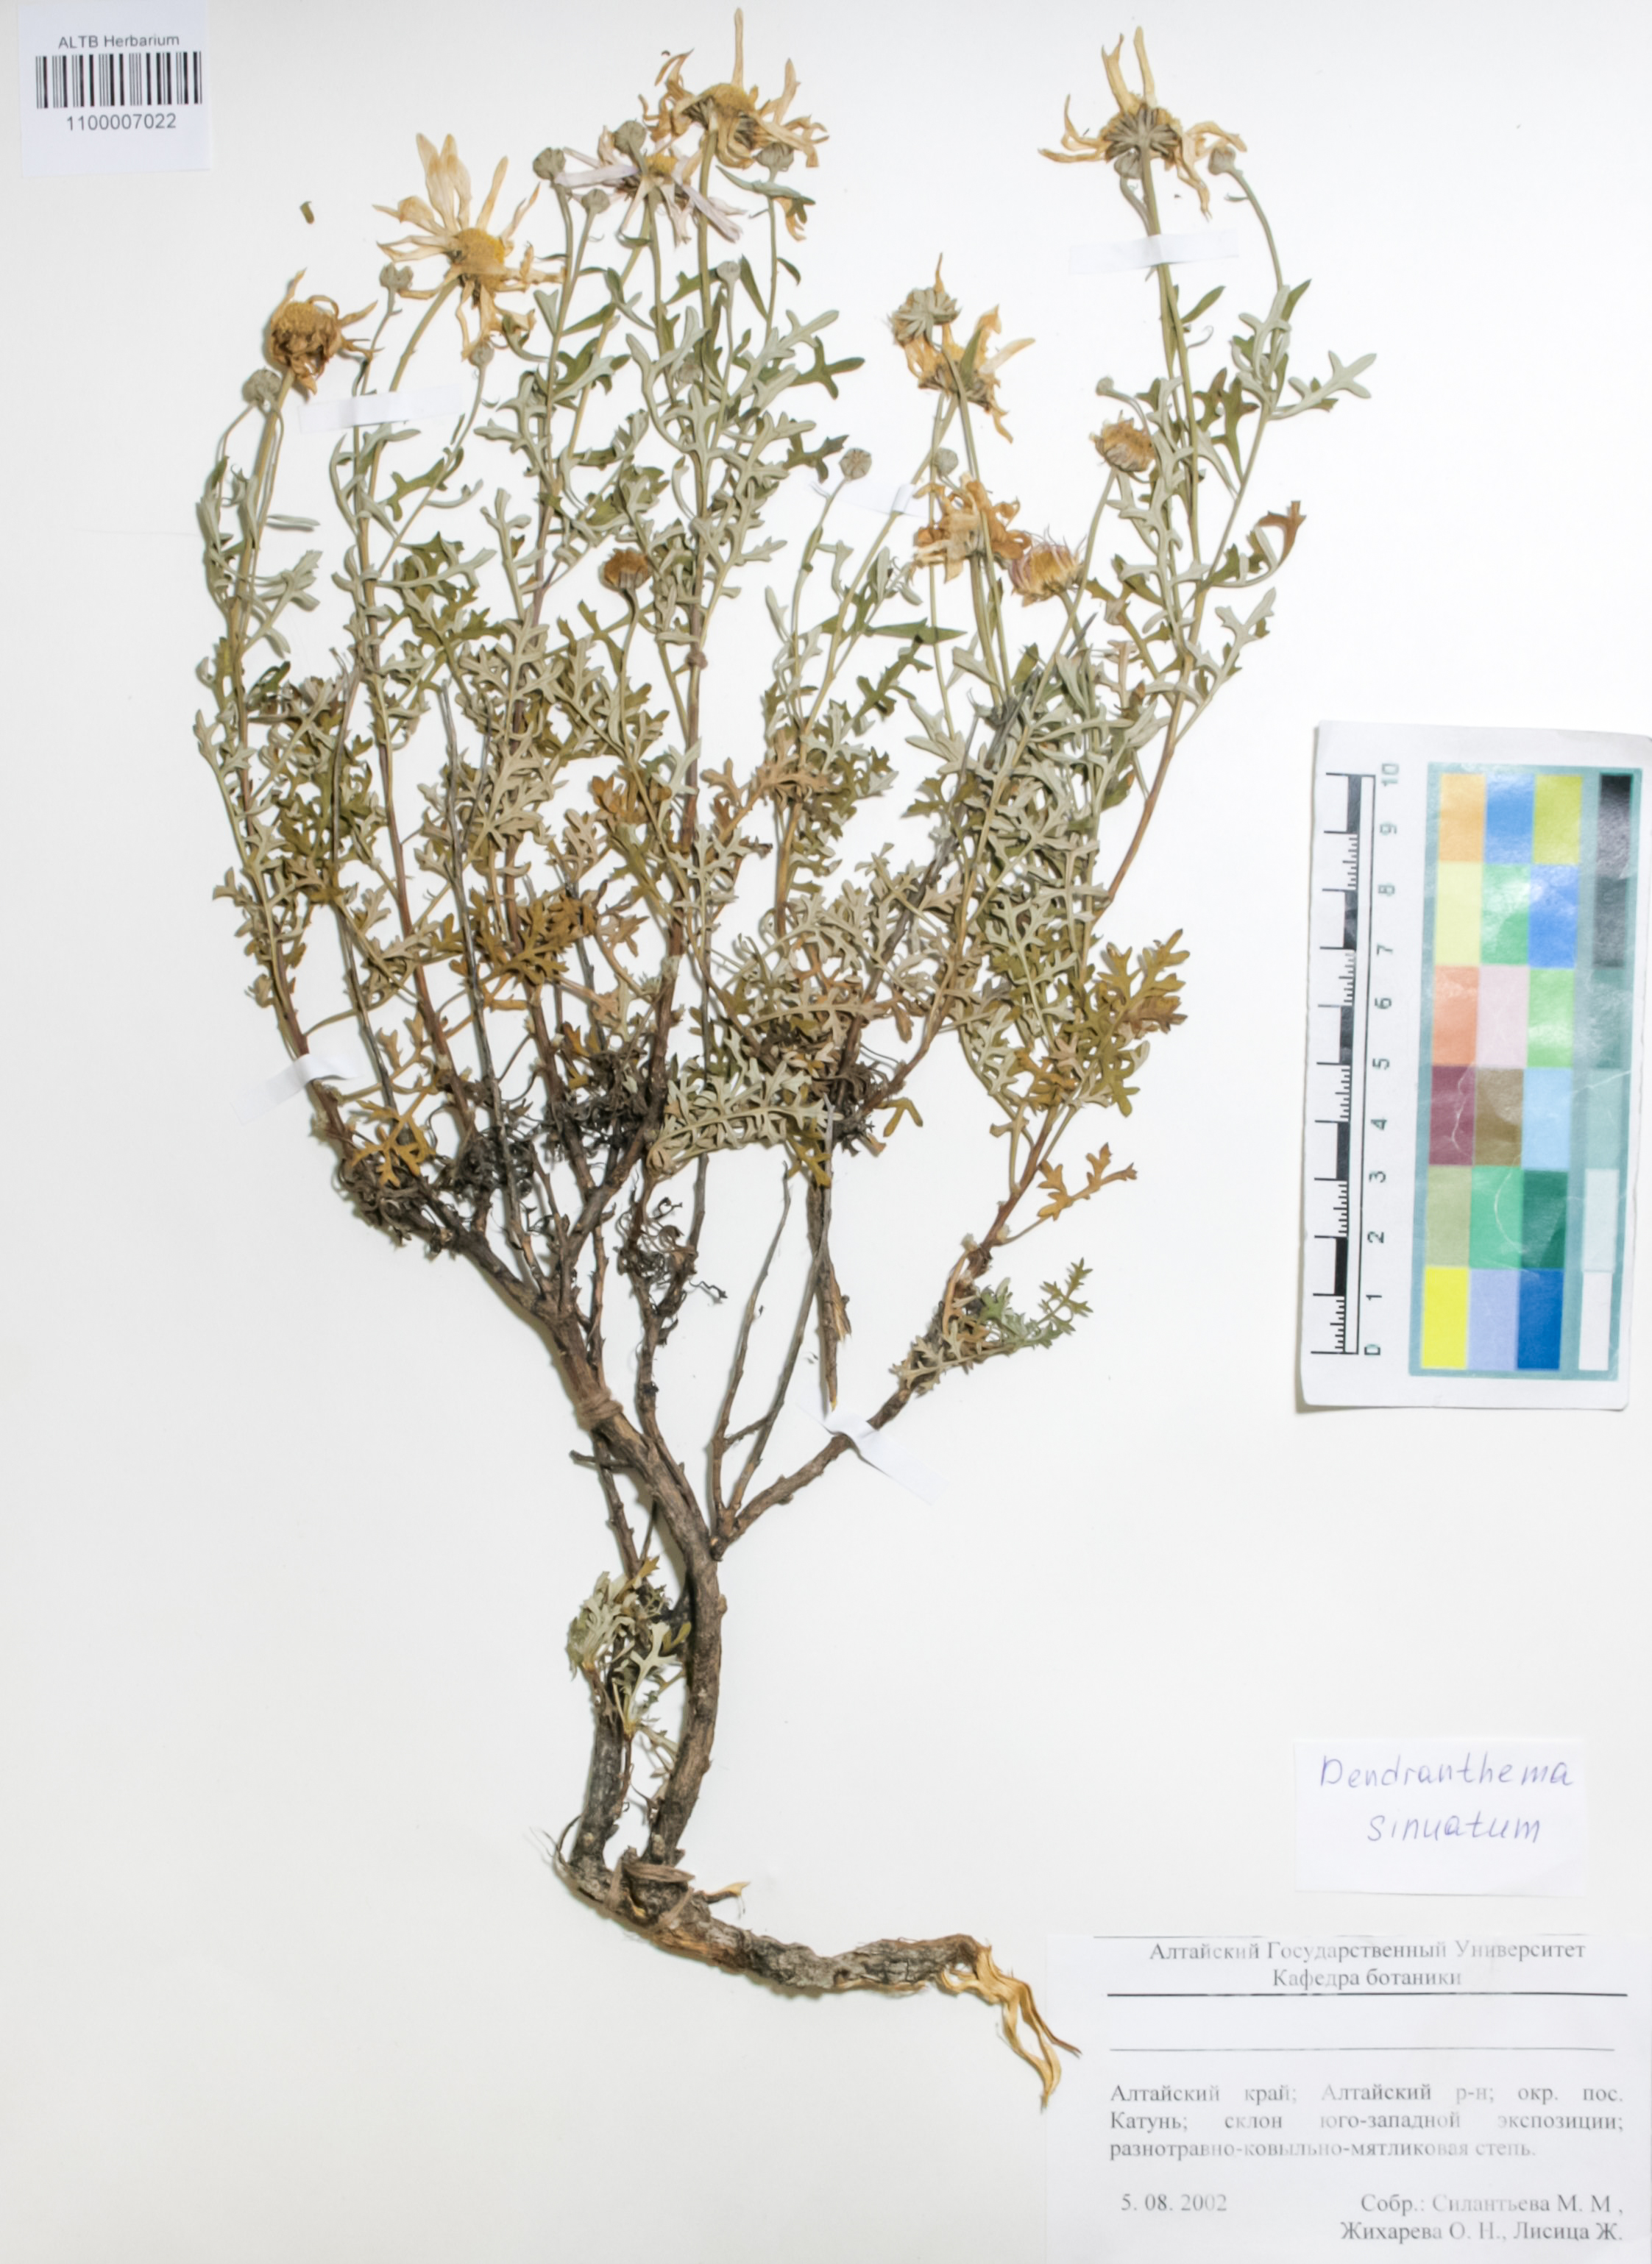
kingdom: Plantae
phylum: Tracheophyta
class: Magnoliopsida
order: Asterales
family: Asteraceae
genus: Chrysanthemum
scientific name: Chrysanthemum sinuatum
